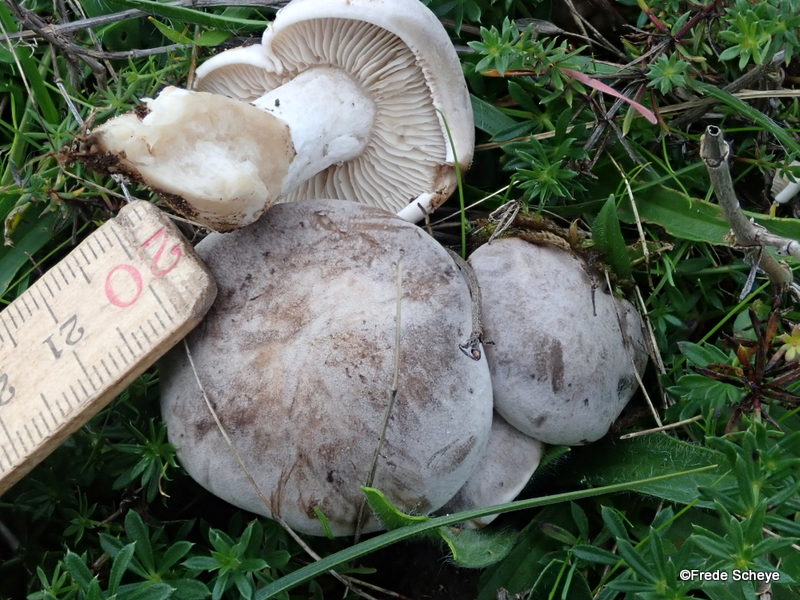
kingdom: Fungi
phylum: Basidiomycota
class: Agaricomycetes
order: Agaricales
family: Tricholomataceae
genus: Lepista
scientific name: Lepista panaeolus
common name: marmoreret hekseringshat
